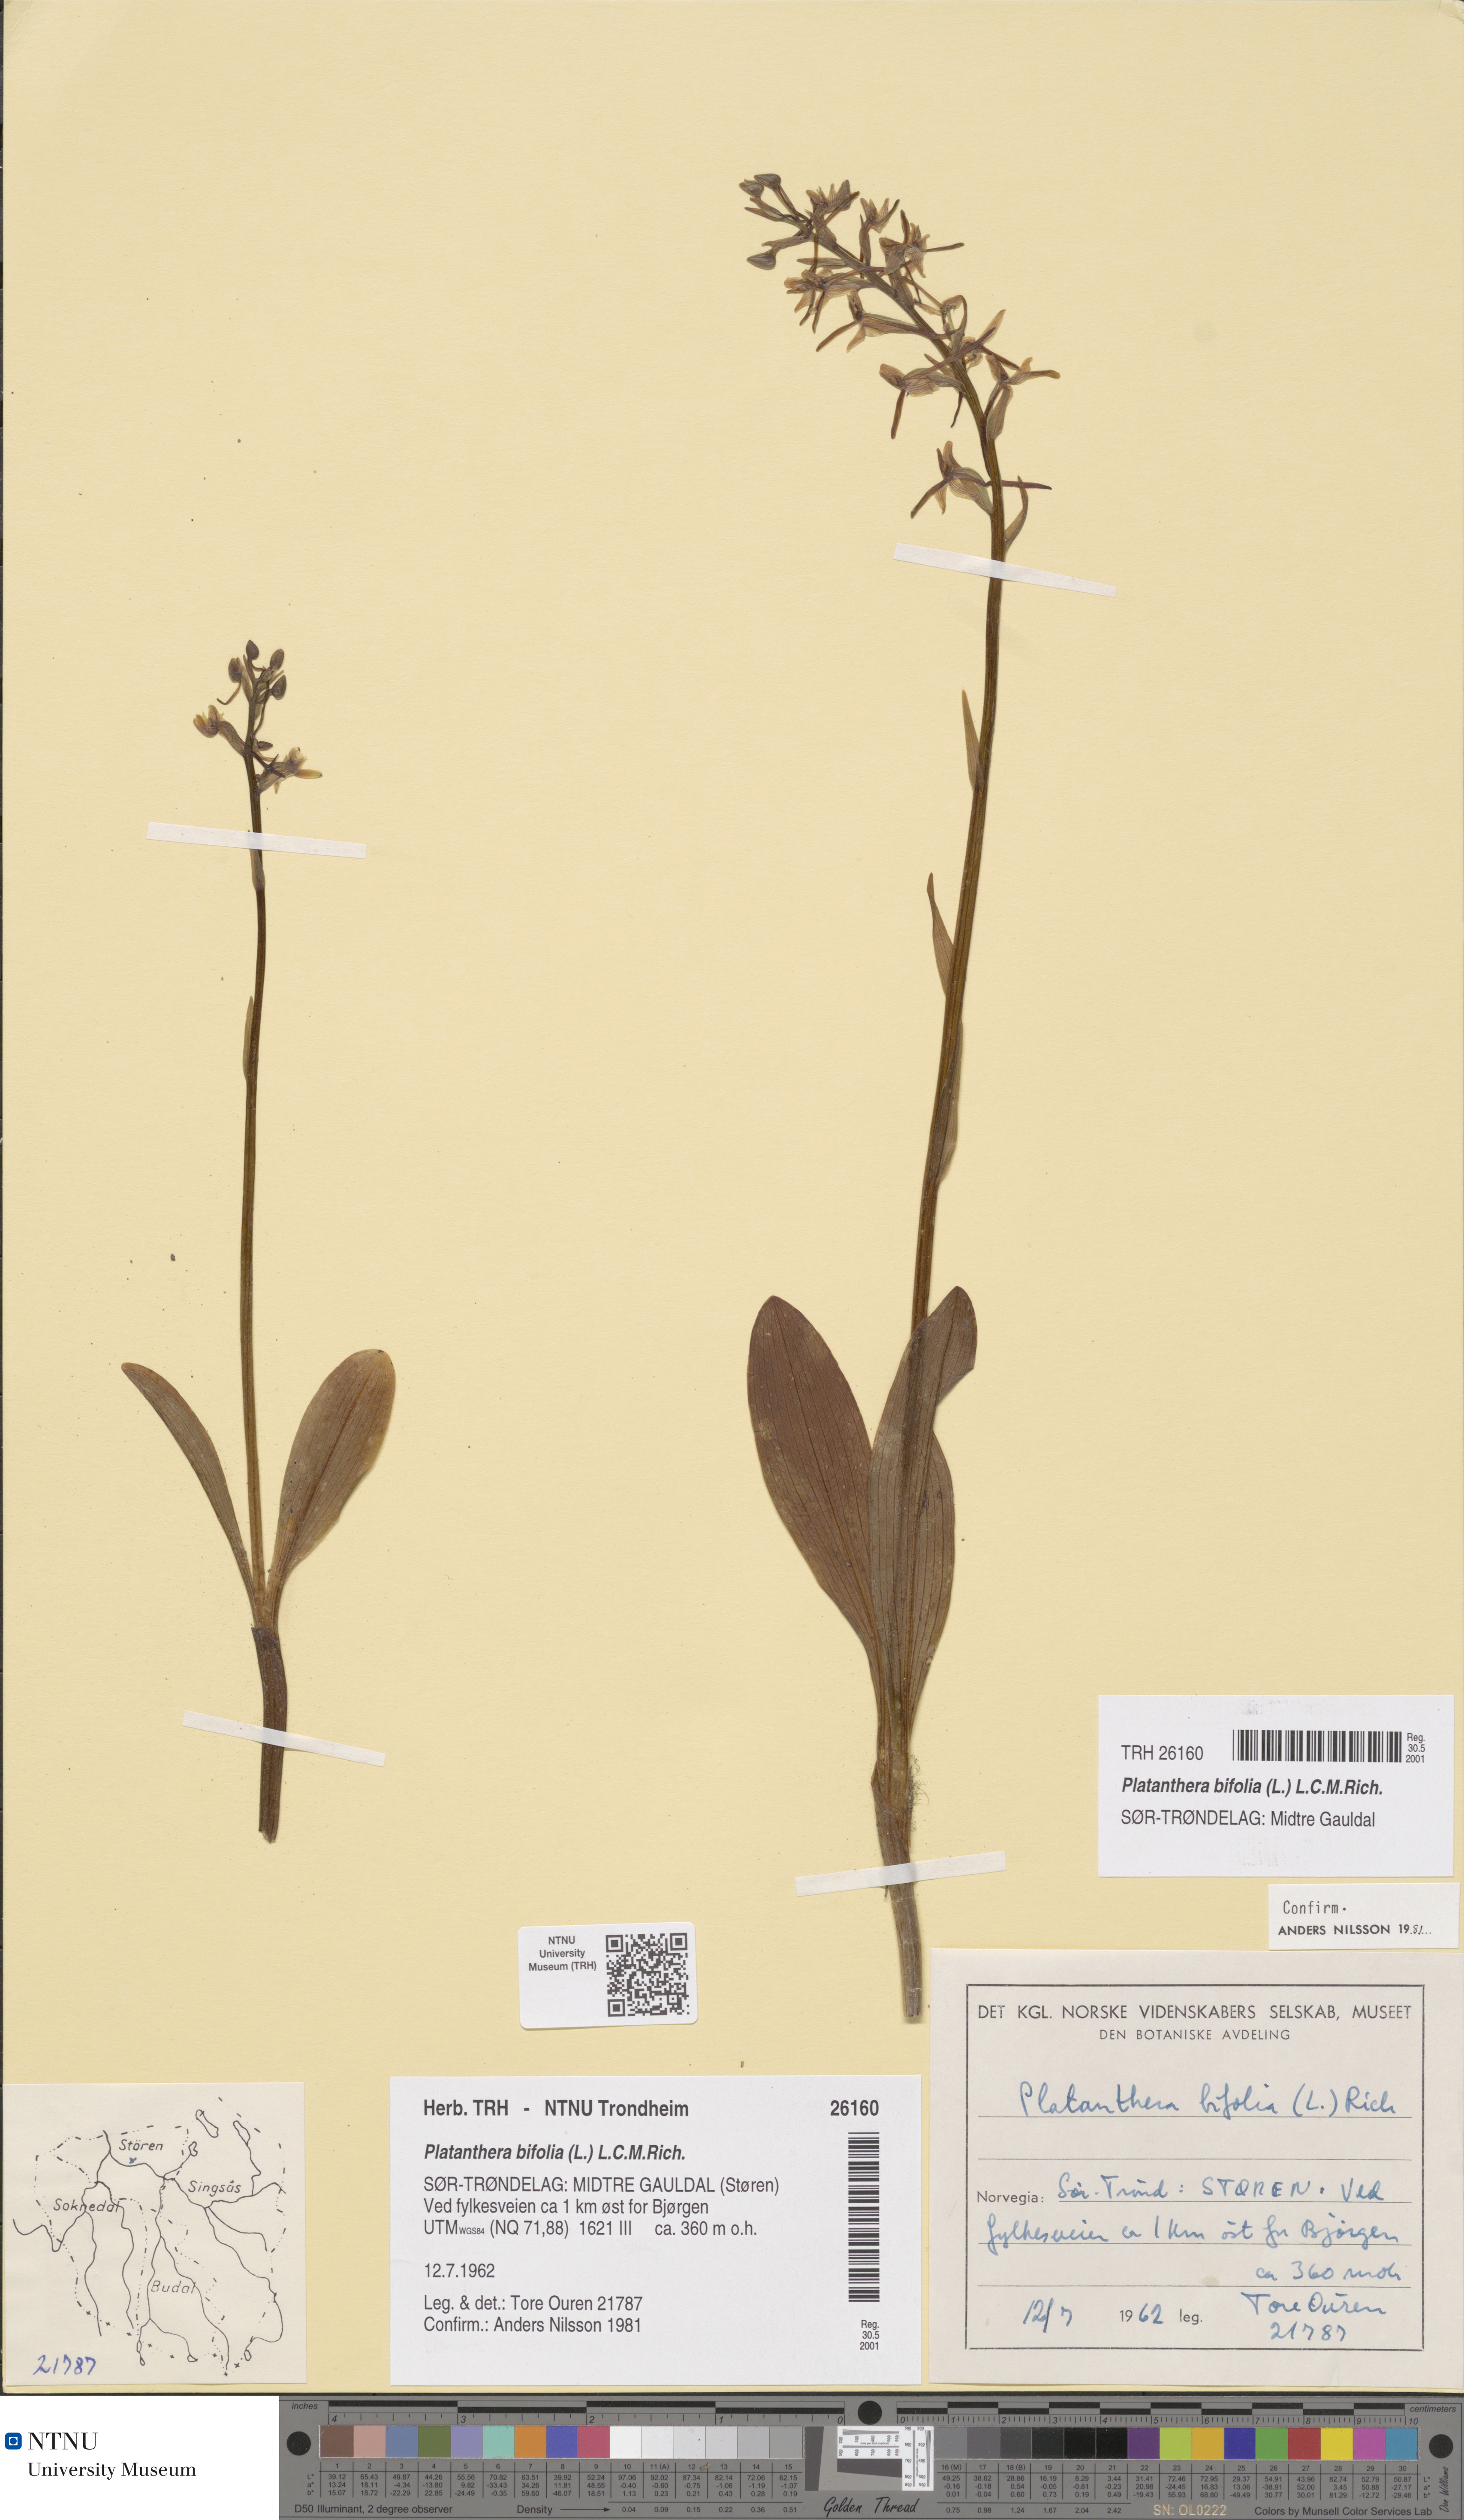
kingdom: Plantae
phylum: Tracheophyta
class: Liliopsida
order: Asparagales
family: Orchidaceae
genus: Platanthera
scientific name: Platanthera bifolia
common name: Lesser butterfly-orchid
